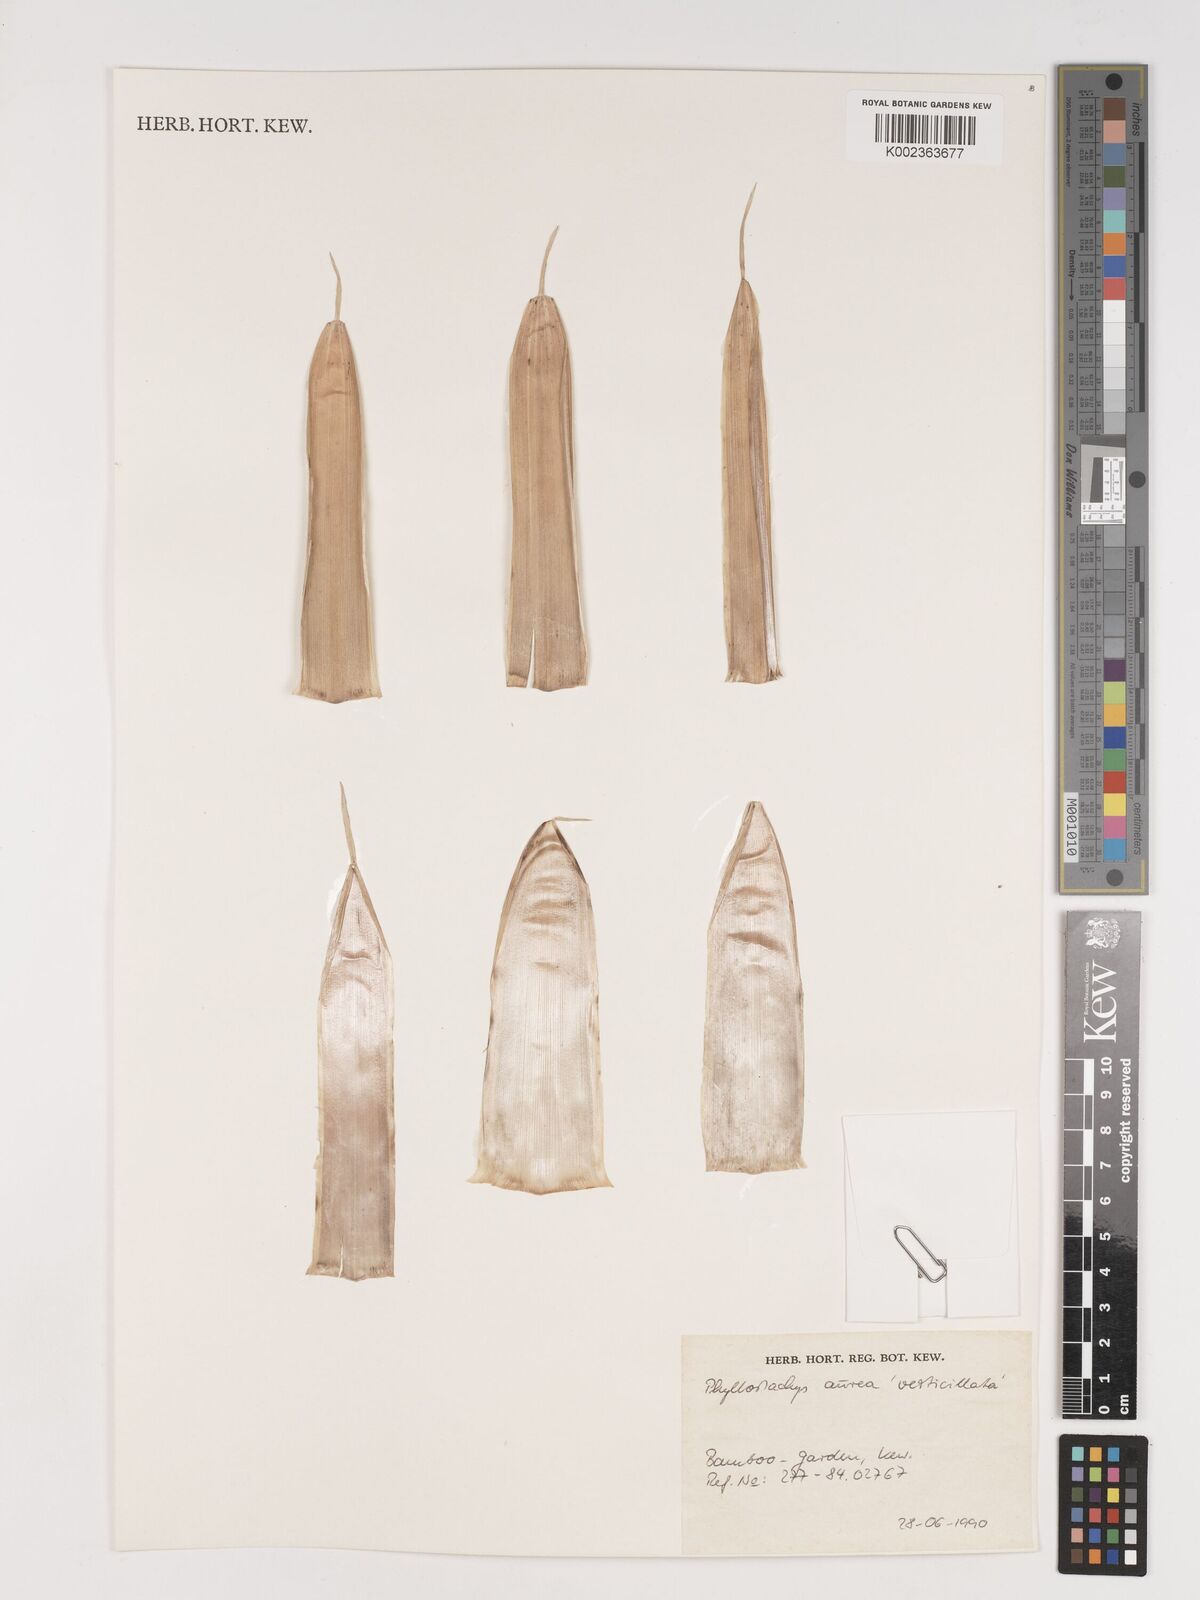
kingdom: Plantae
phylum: Tracheophyta
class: Liliopsida
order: Poales
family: Poaceae
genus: Phyllostachys
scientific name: Phyllostachys aurea
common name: Golden bamboo
